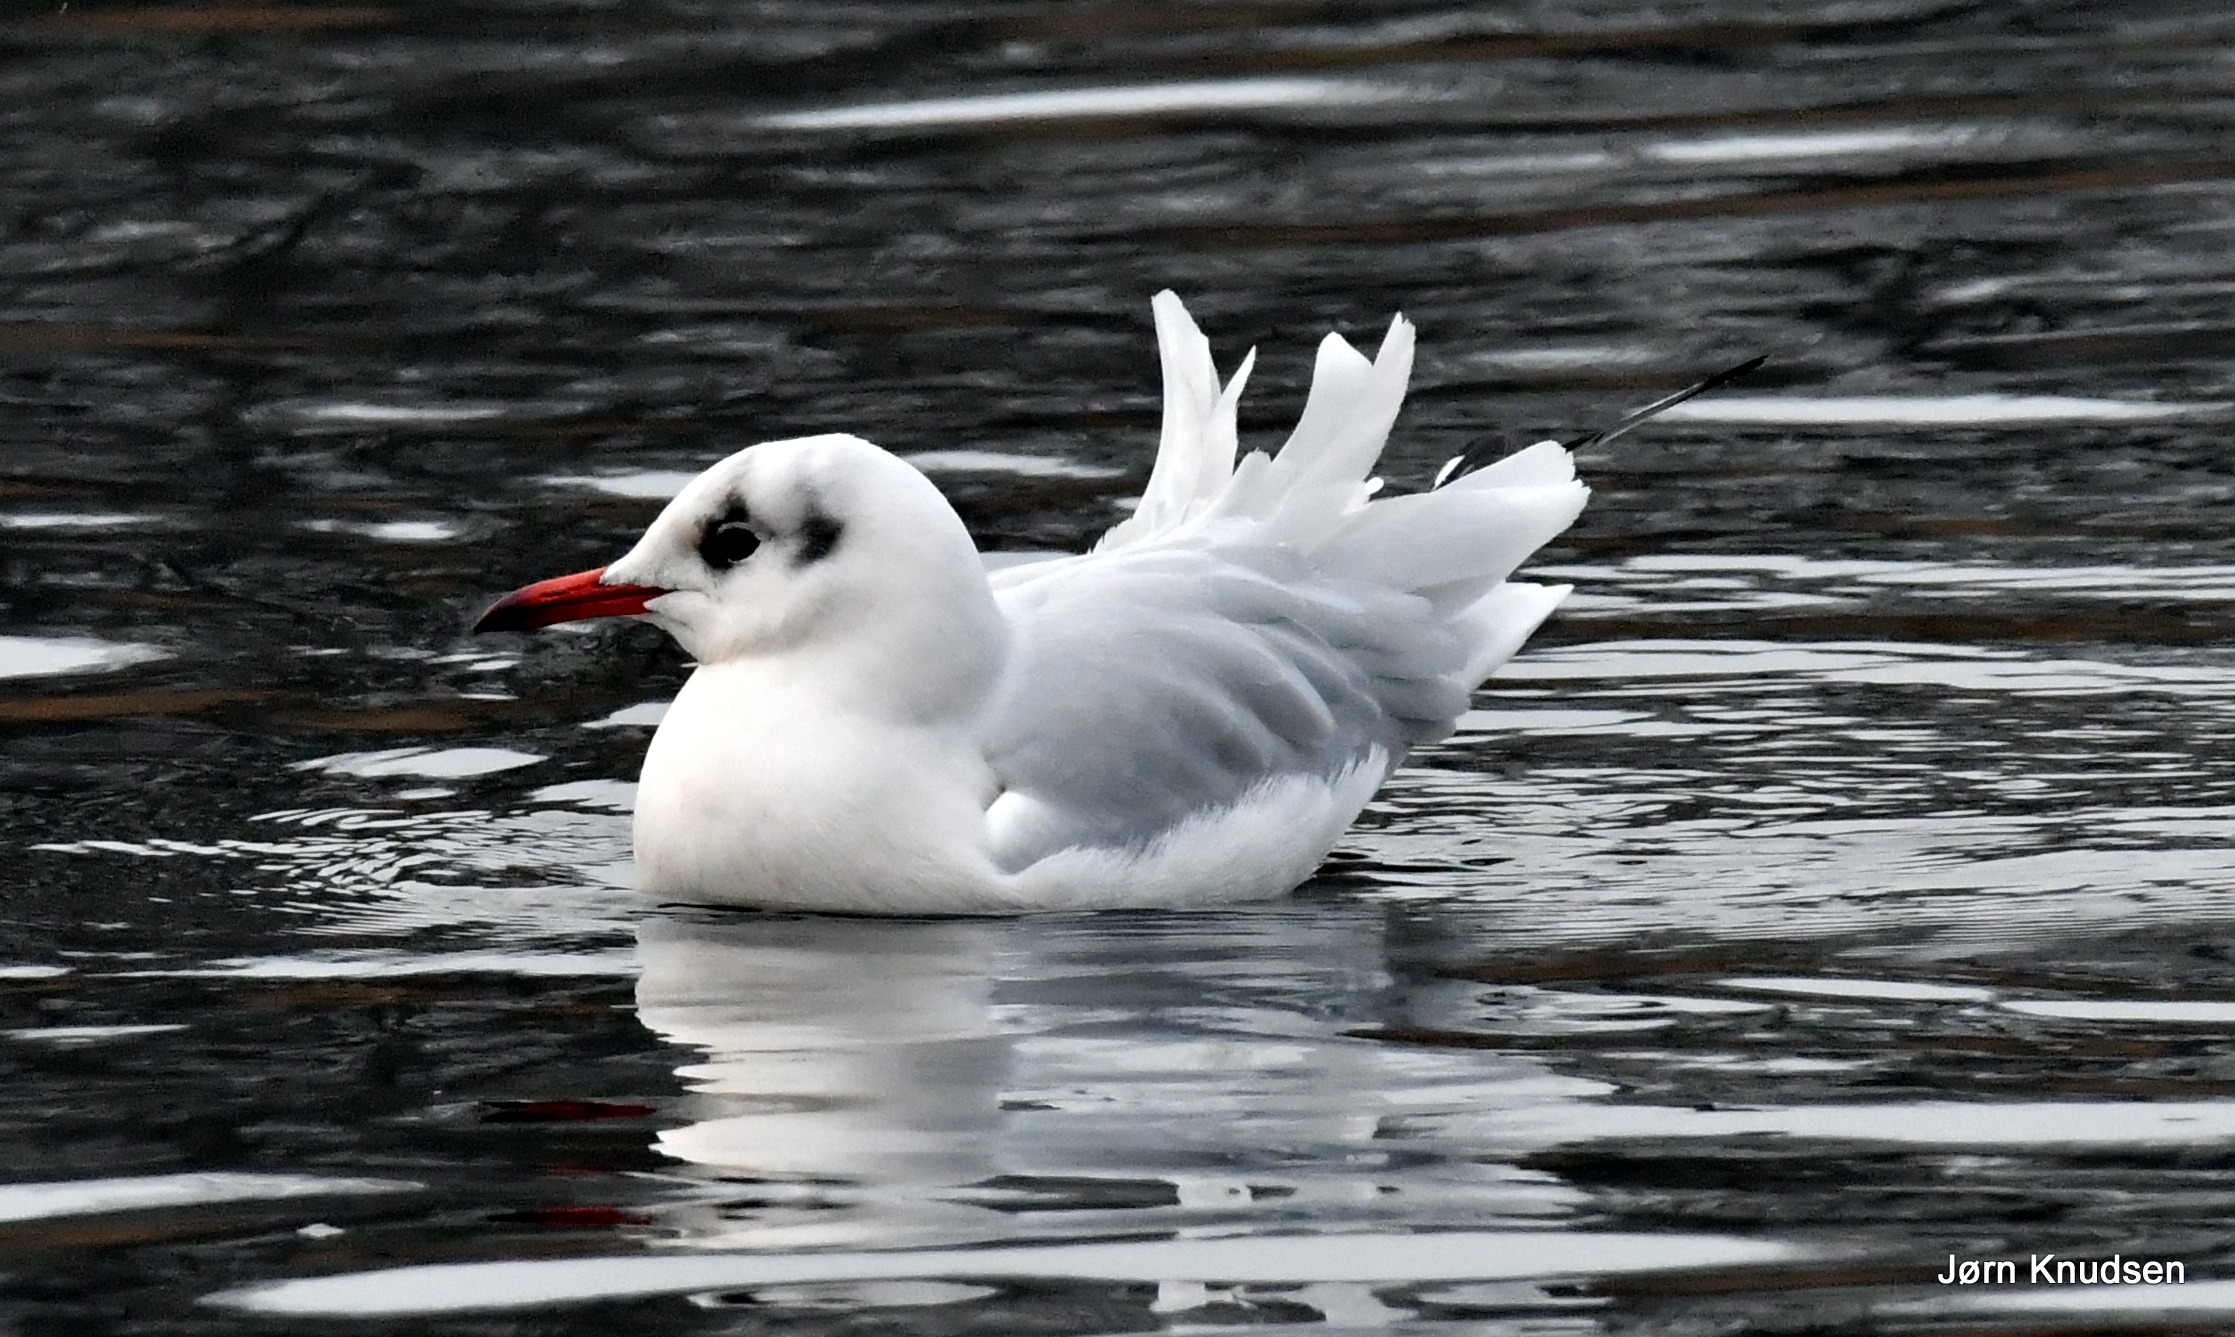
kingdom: Animalia
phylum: Chordata
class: Aves
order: Charadriiformes
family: Laridae
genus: Chroicocephalus
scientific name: Chroicocephalus ridibundus
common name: Hættemåge
